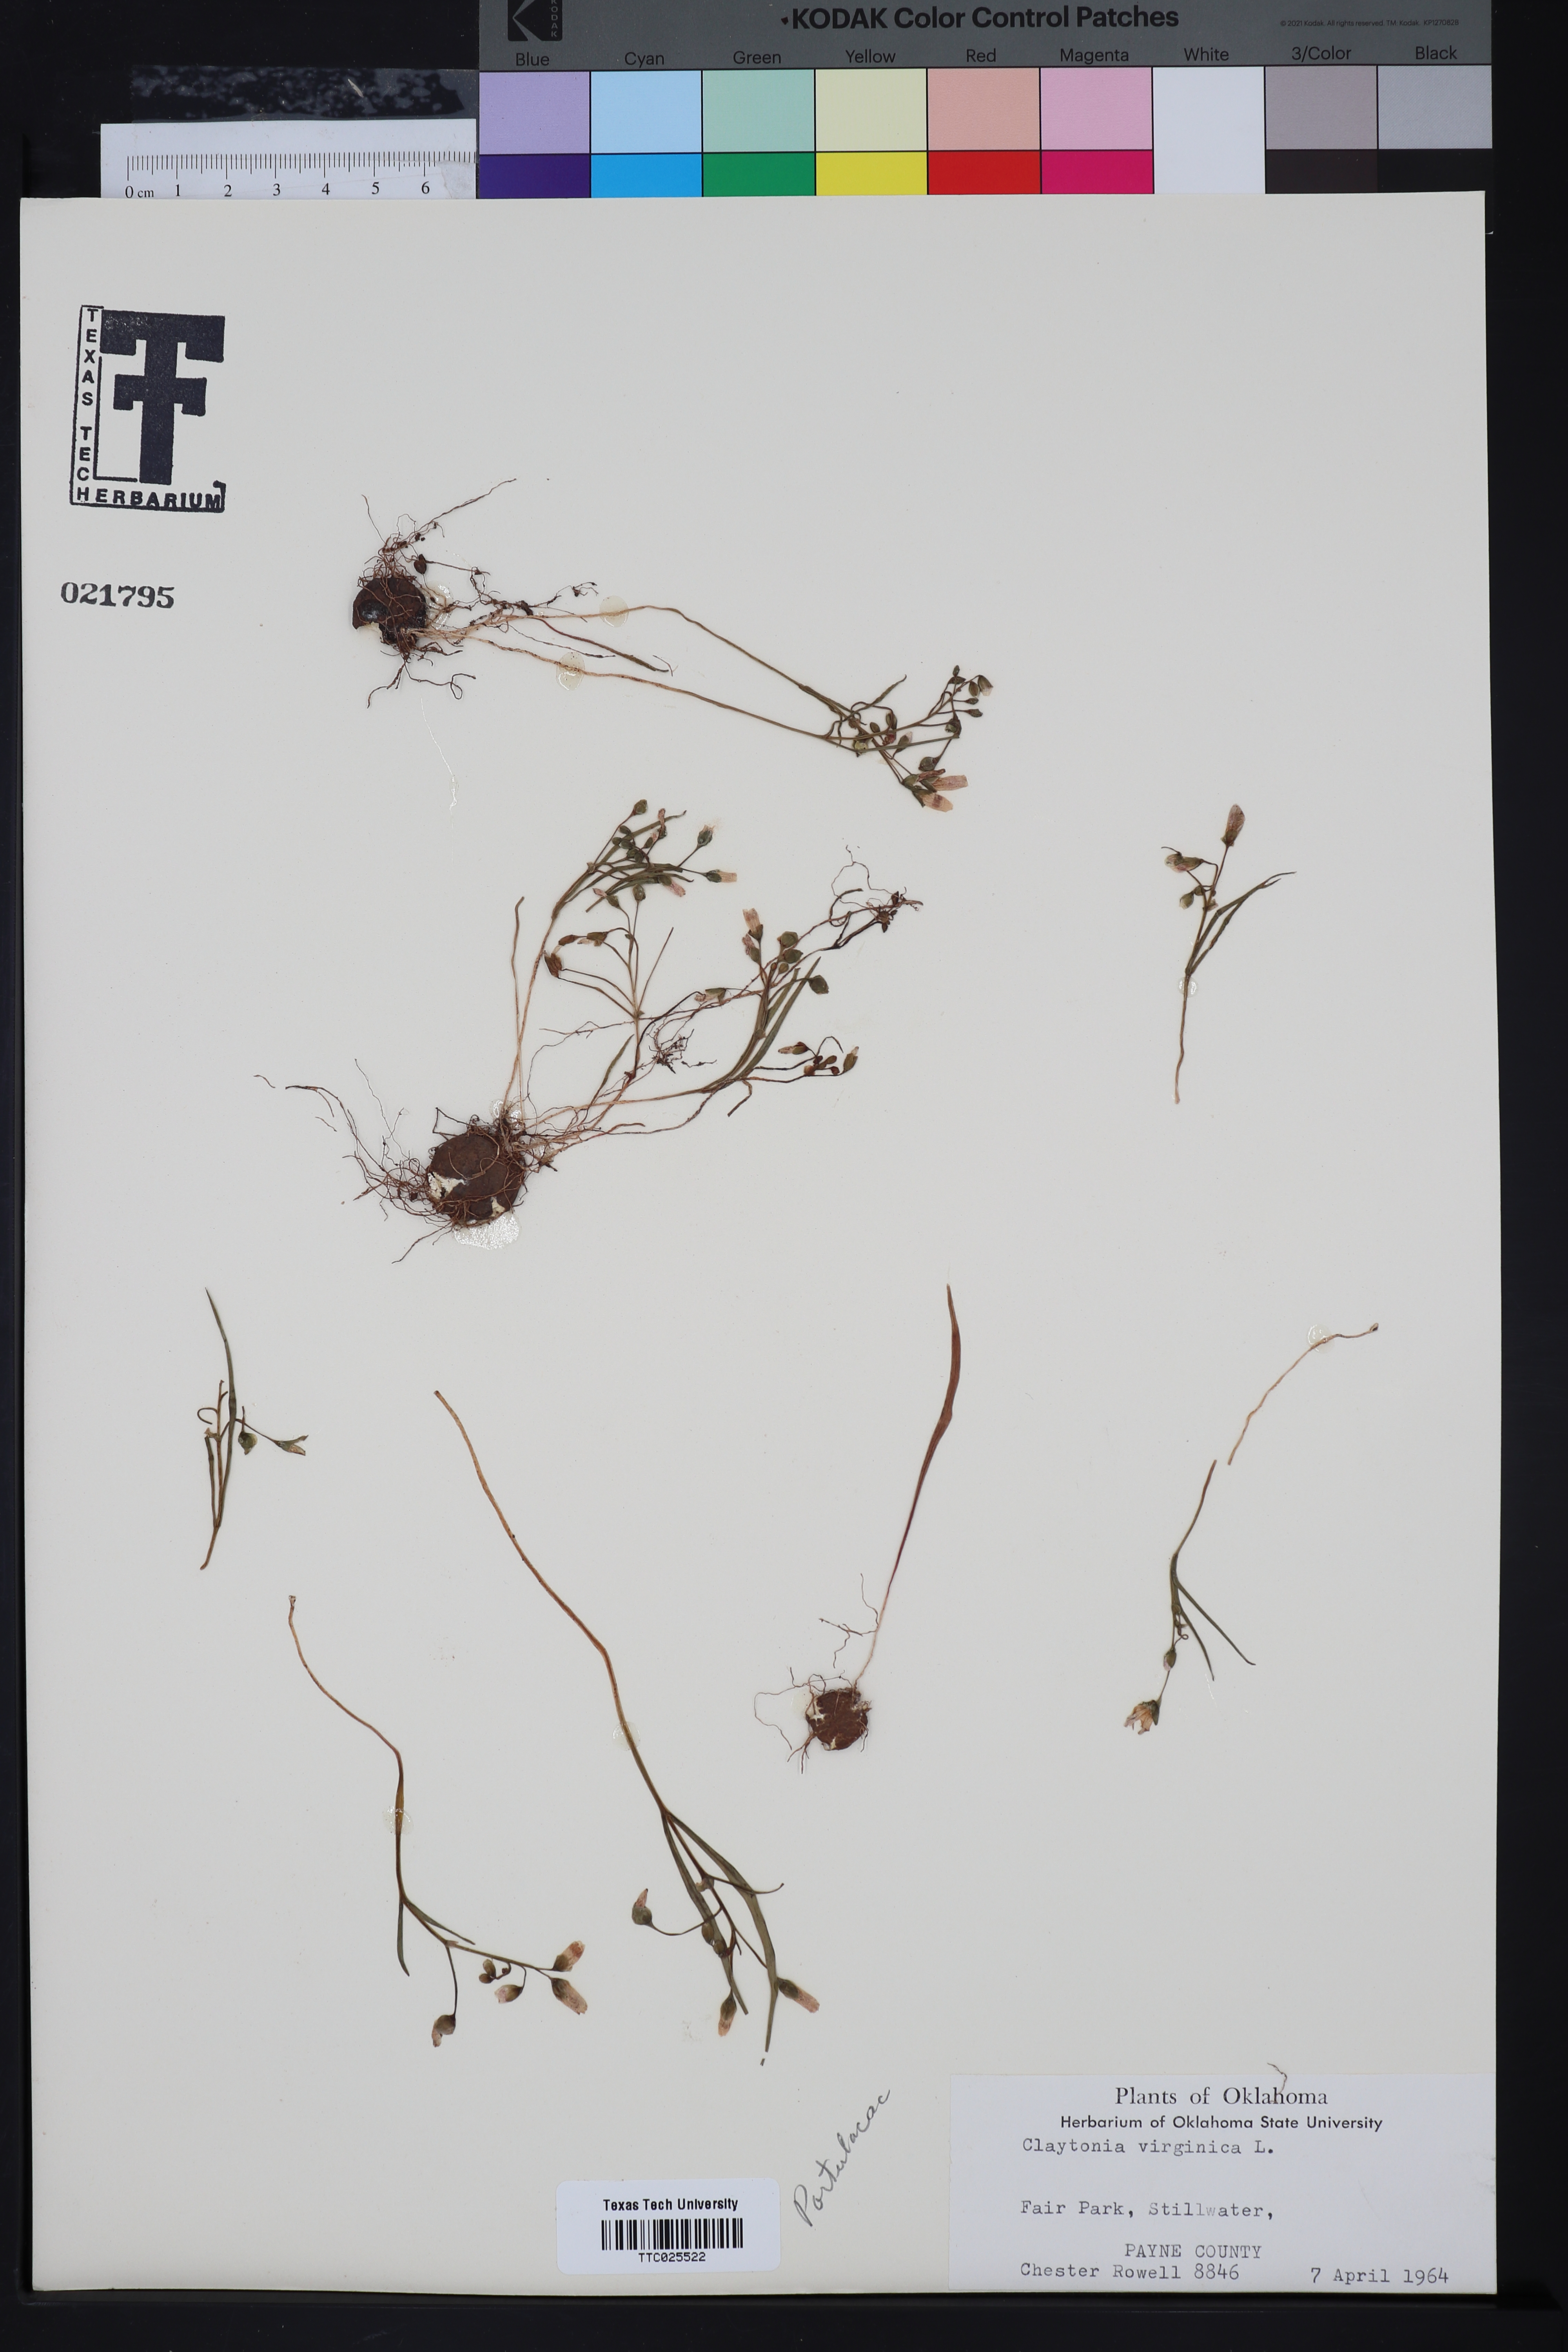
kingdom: Plantae
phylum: Tracheophyta
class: Magnoliopsida
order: Caryophyllales
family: Montiaceae
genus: Claytonia
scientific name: Claytonia virginica
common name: Virginia springbeauty
